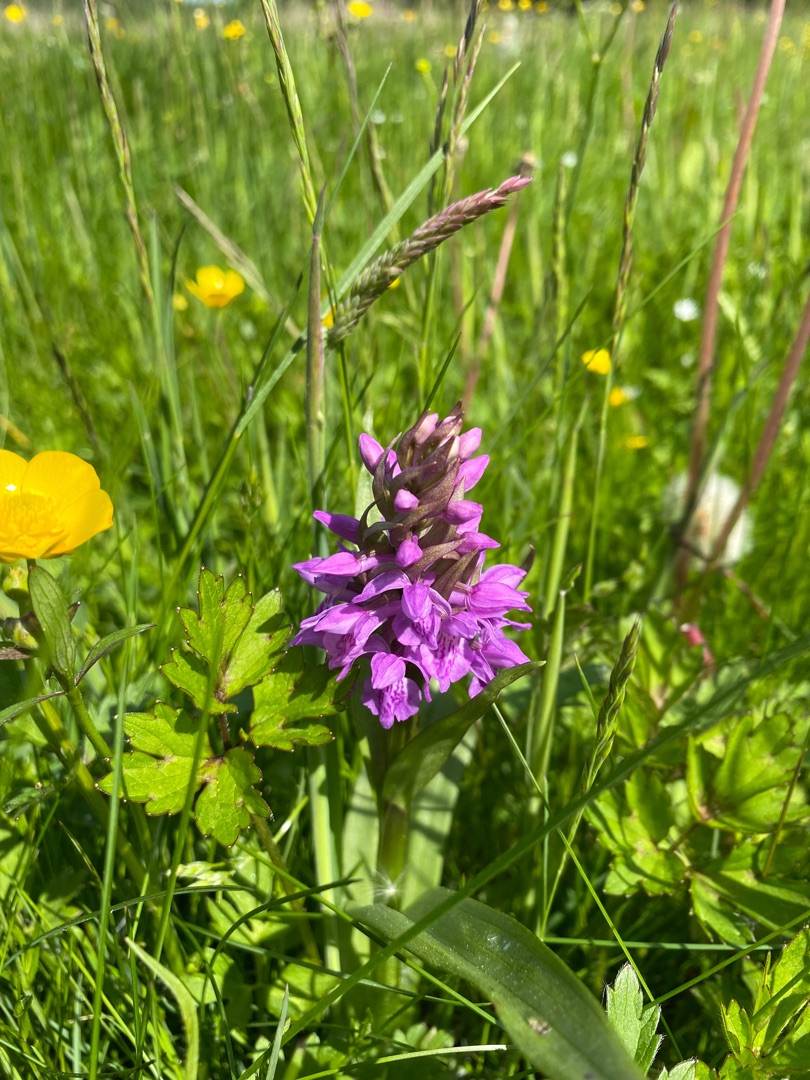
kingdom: Plantae
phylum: Tracheophyta
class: Liliopsida
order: Asparagales
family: Orchidaceae
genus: Dactylorhiza
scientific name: Dactylorhiza incarnata
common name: Kødfarvet gøgeurt
